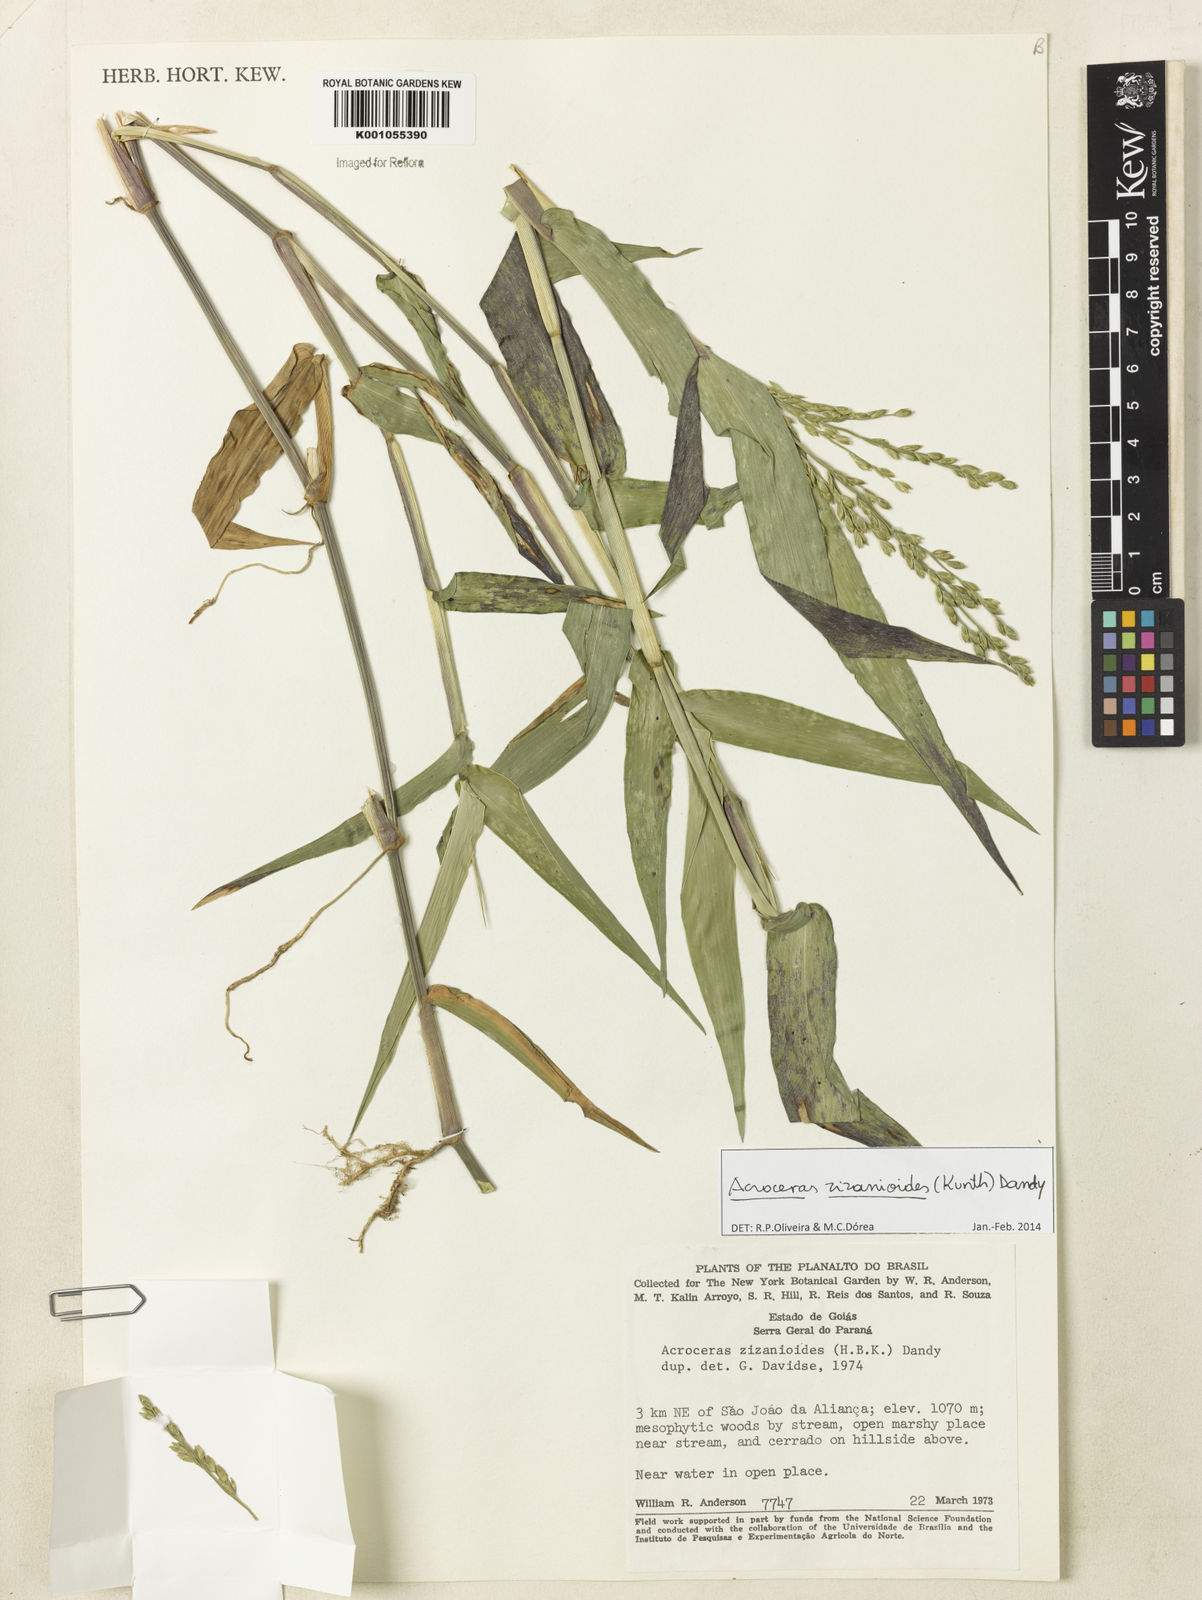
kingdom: Plantae
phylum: Tracheophyta
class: Liliopsida
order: Poales
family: Poaceae
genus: Acroceras
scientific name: Acroceras zizanioides
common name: Oat grass
